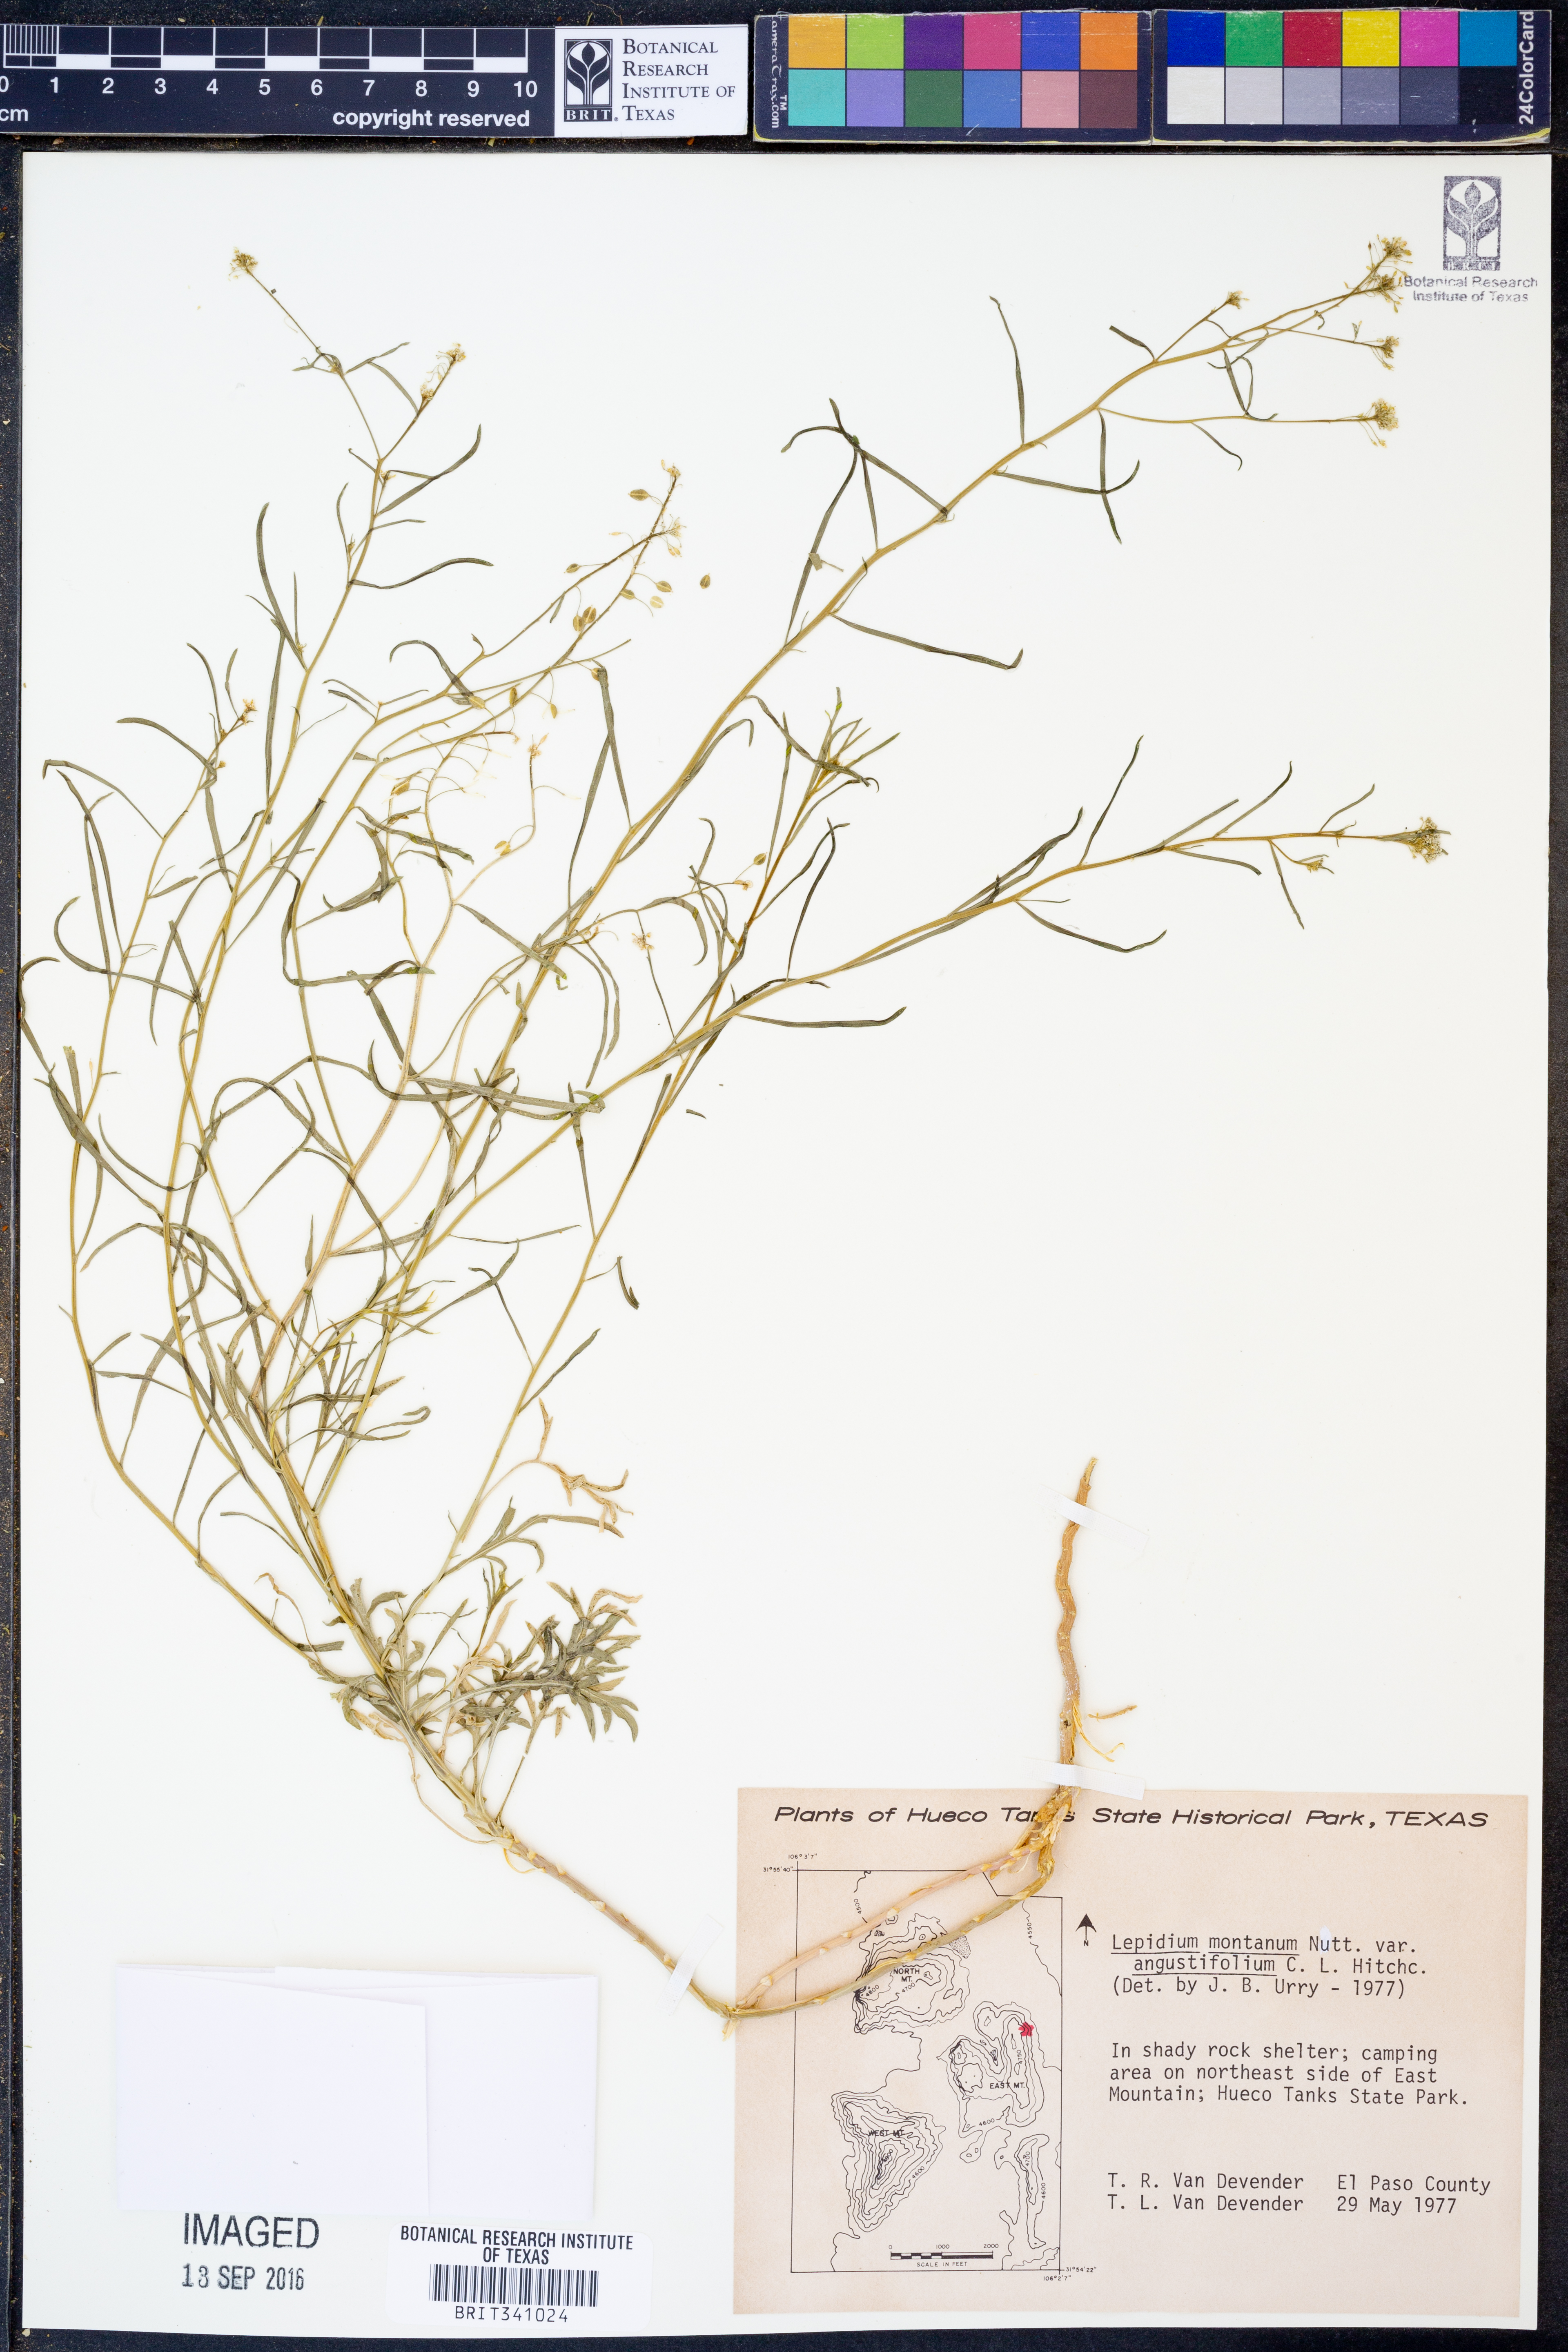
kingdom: Plantae
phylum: Tracheophyta
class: Magnoliopsida
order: Brassicales
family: Brassicaceae
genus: Lepidium
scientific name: Lepidium alyssoides
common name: Mesa pepperweed
